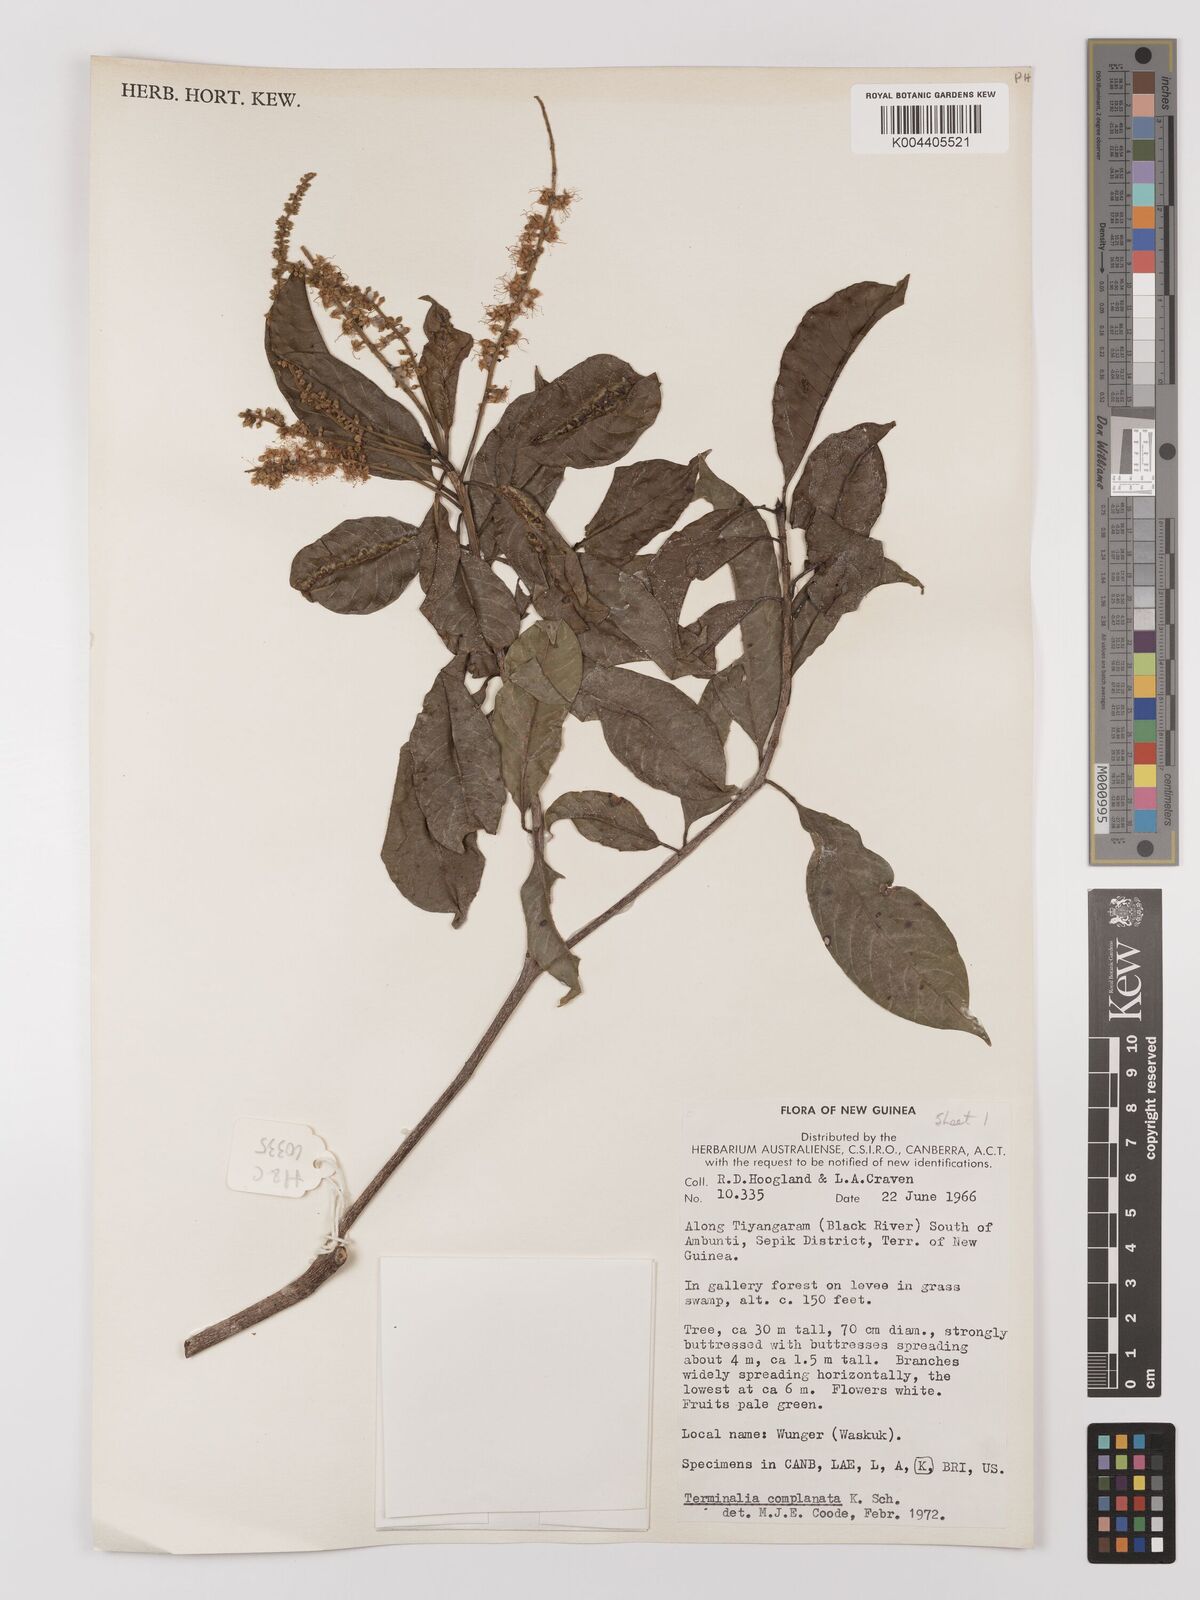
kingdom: Plantae
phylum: Tracheophyta
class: Magnoliopsida
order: Myrtales
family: Combretaceae
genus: Terminalia
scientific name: Terminalia
